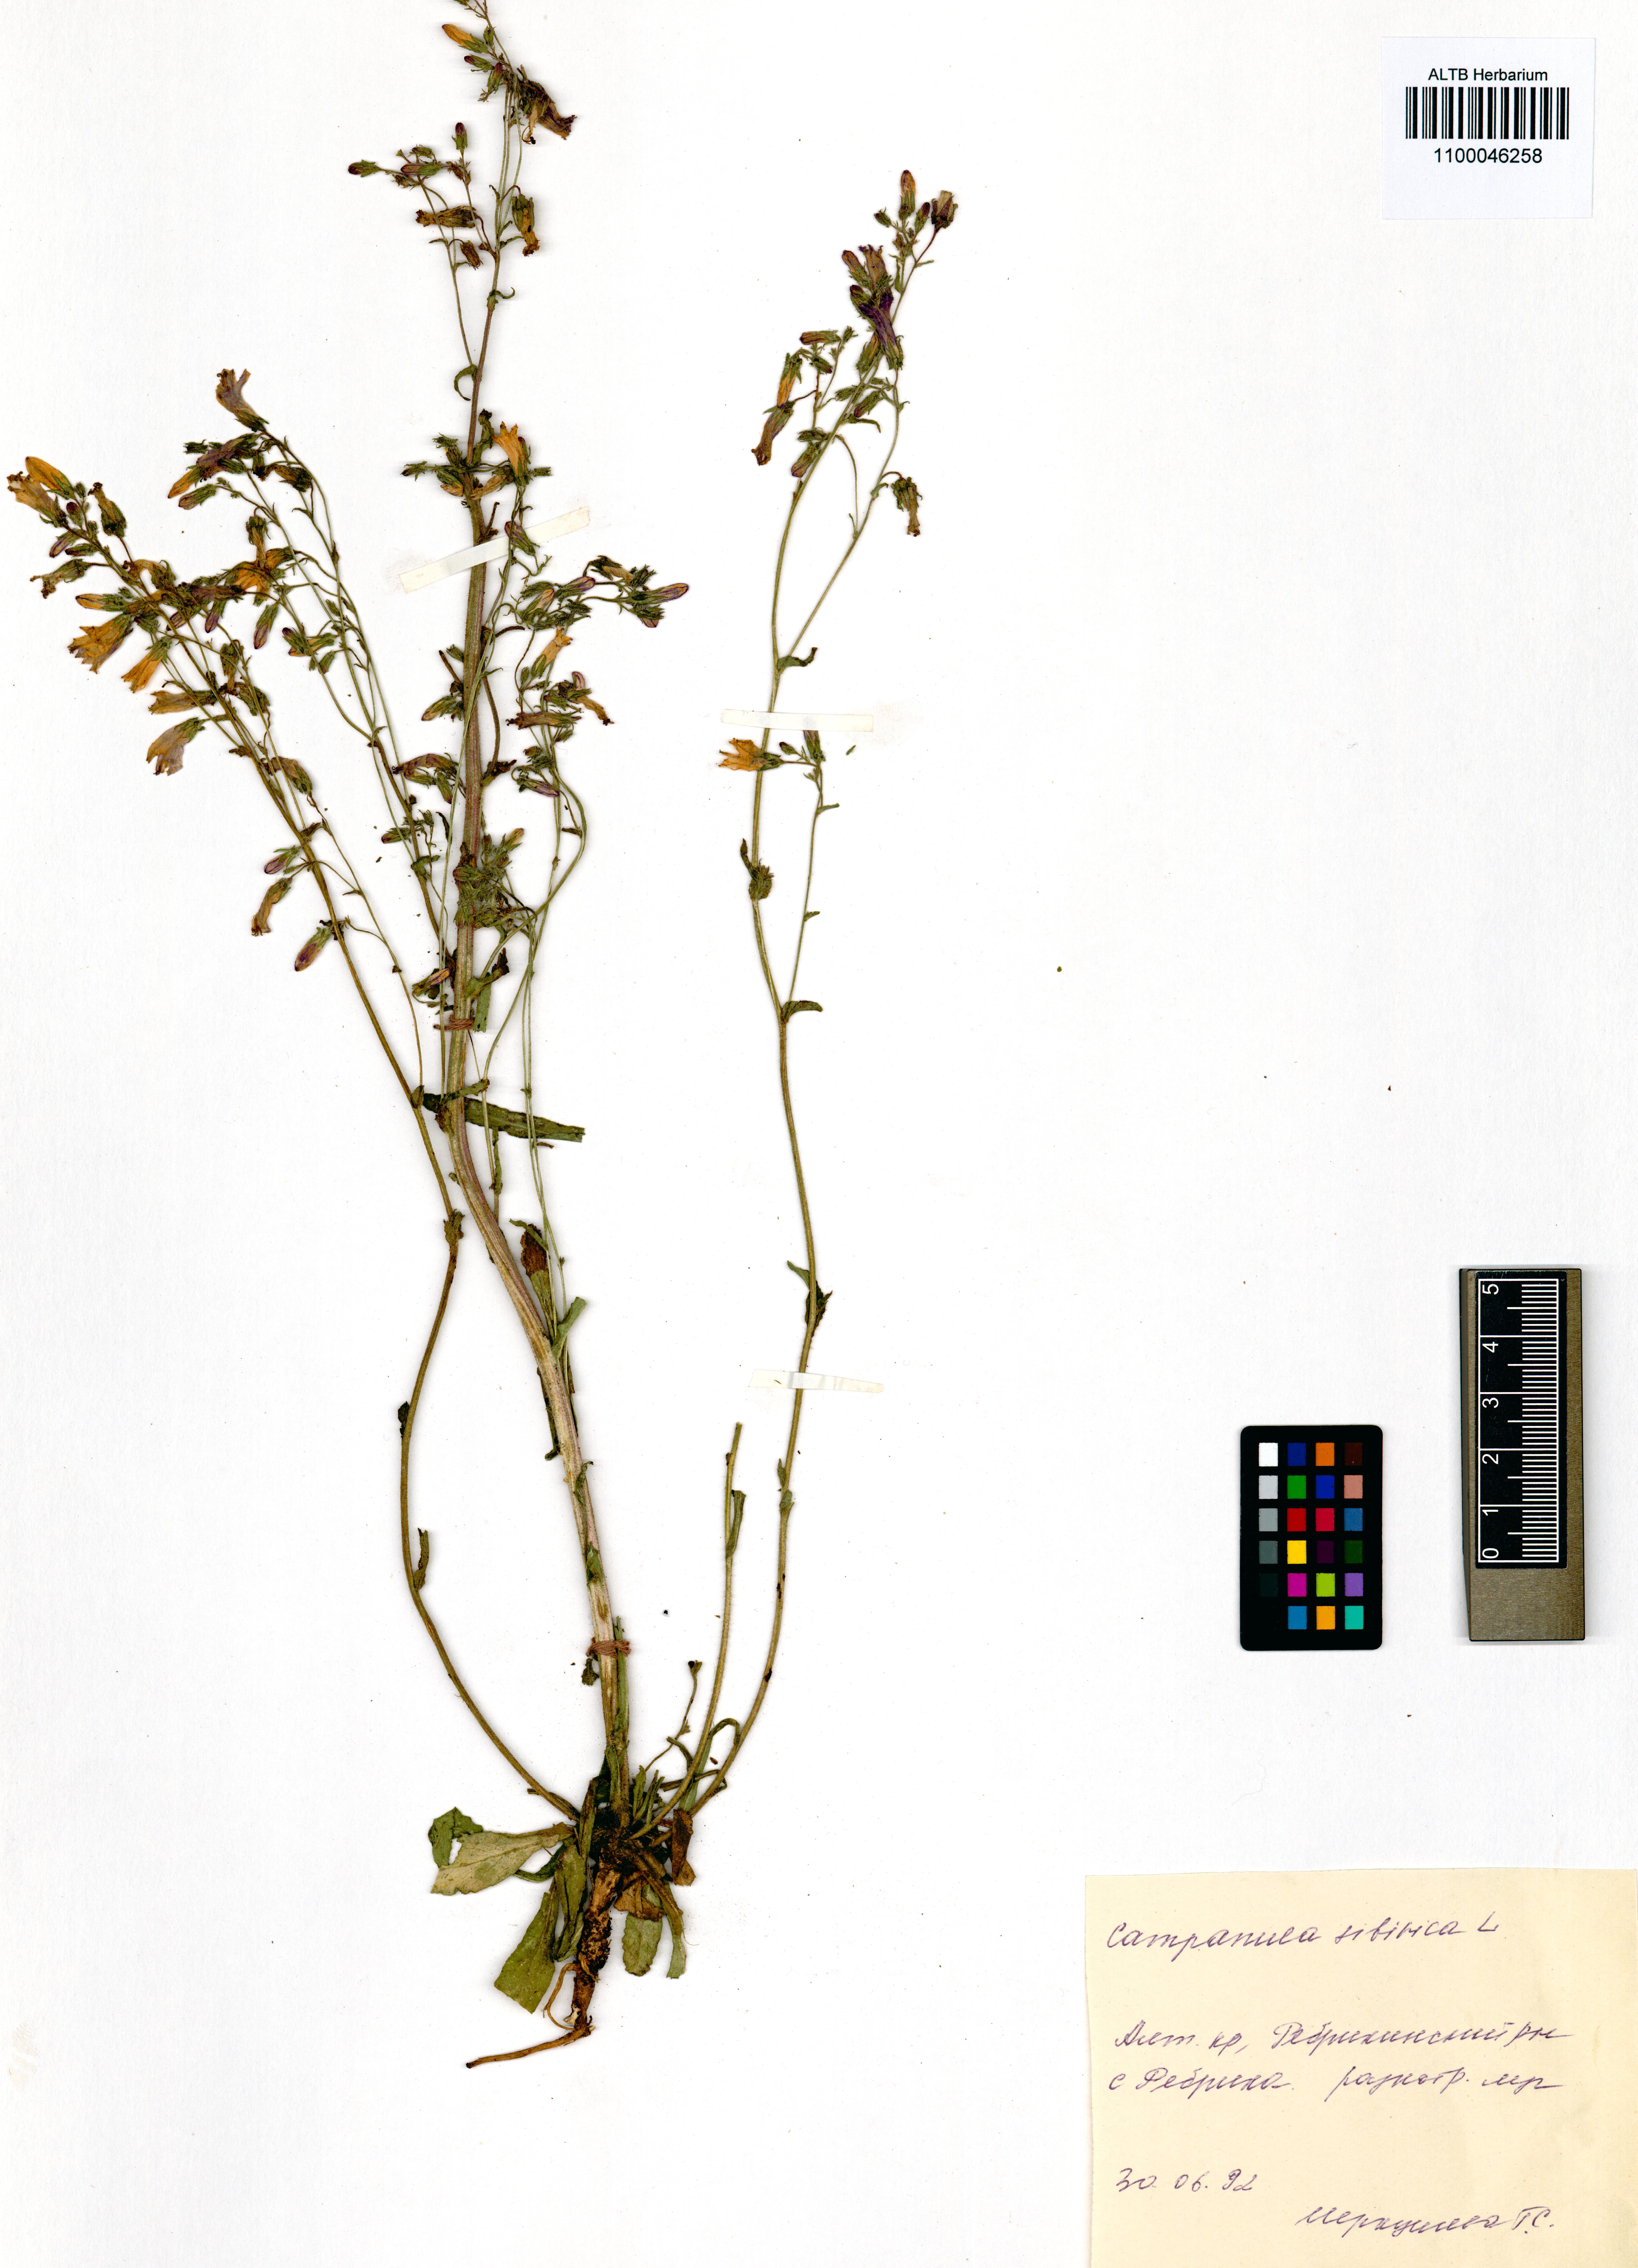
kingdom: Plantae
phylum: Tracheophyta
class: Magnoliopsida
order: Asterales
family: Campanulaceae
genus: Campanula
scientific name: Campanula sibirica
